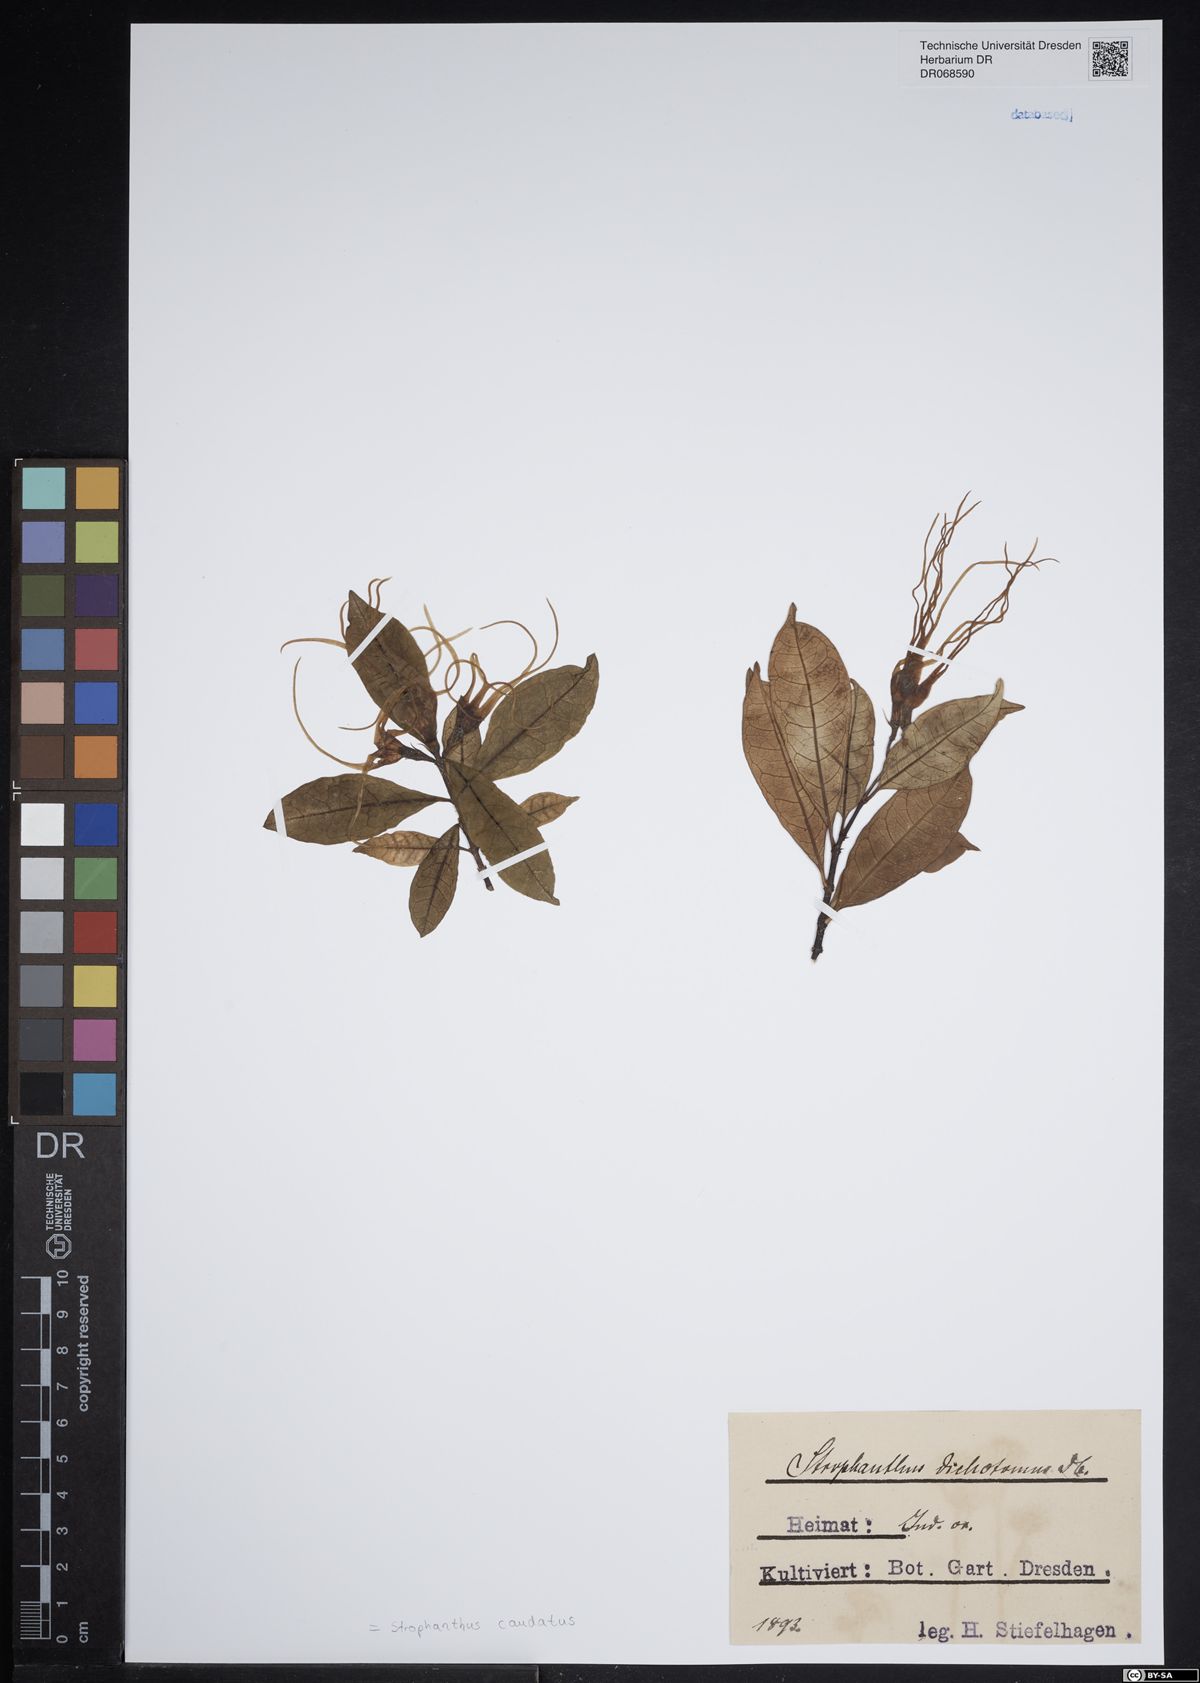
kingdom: Plantae
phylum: Tracheophyta
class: Magnoliopsida
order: Gentianales
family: Apocynaceae
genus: Strophanthus
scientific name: Strophanthus caudatus
